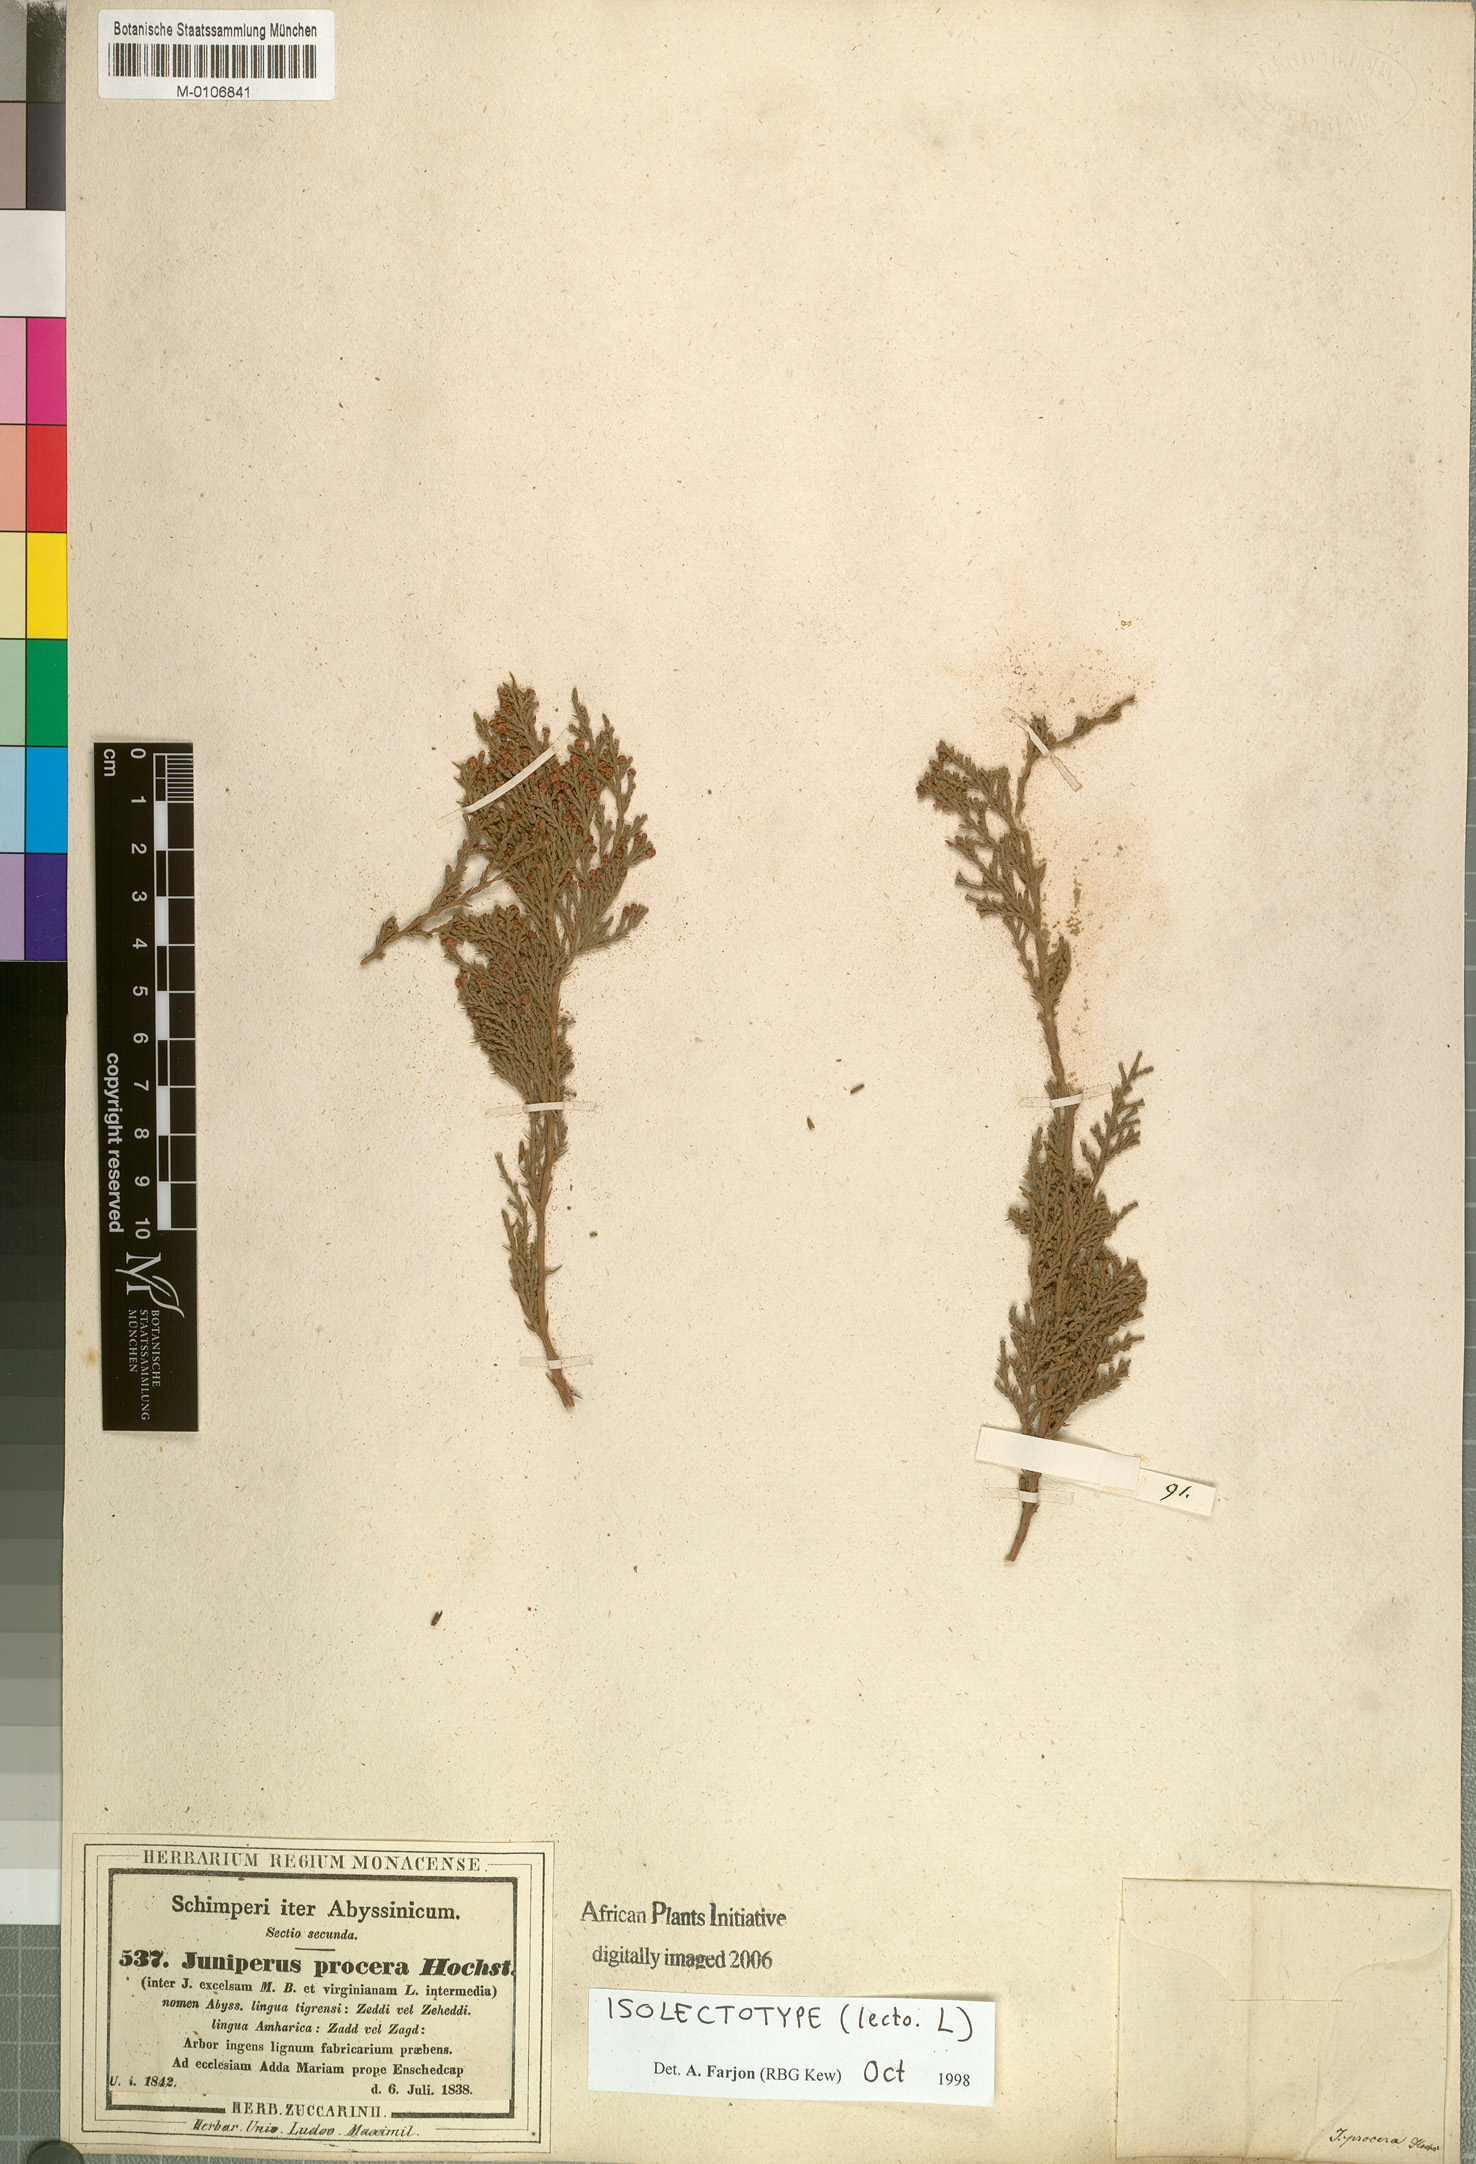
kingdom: Plantae
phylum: Tracheophyta
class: Pinopsida
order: Pinales
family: Cupressaceae
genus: Juniperus
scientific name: Juniperus procera
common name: African juniper
